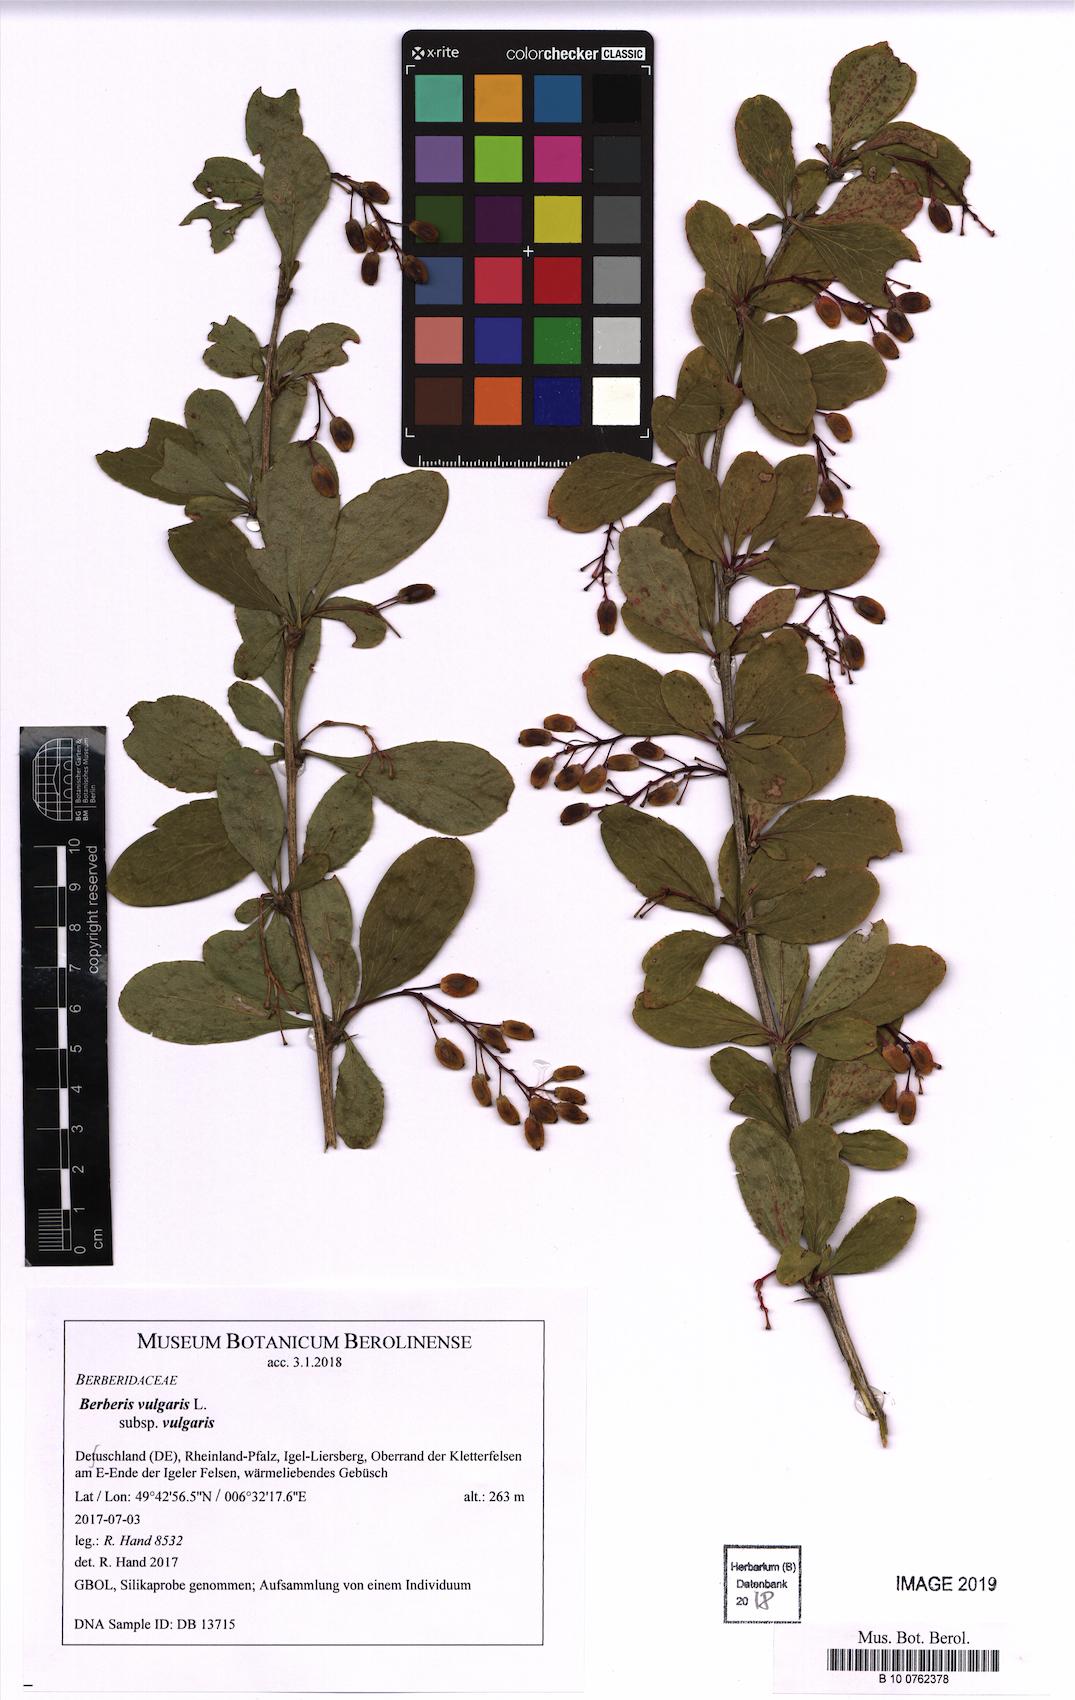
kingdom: Plantae
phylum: Tracheophyta
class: Magnoliopsida
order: Ranunculales
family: Berberidaceae
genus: Berberis
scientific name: Berberis vulgaris
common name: Barberry
